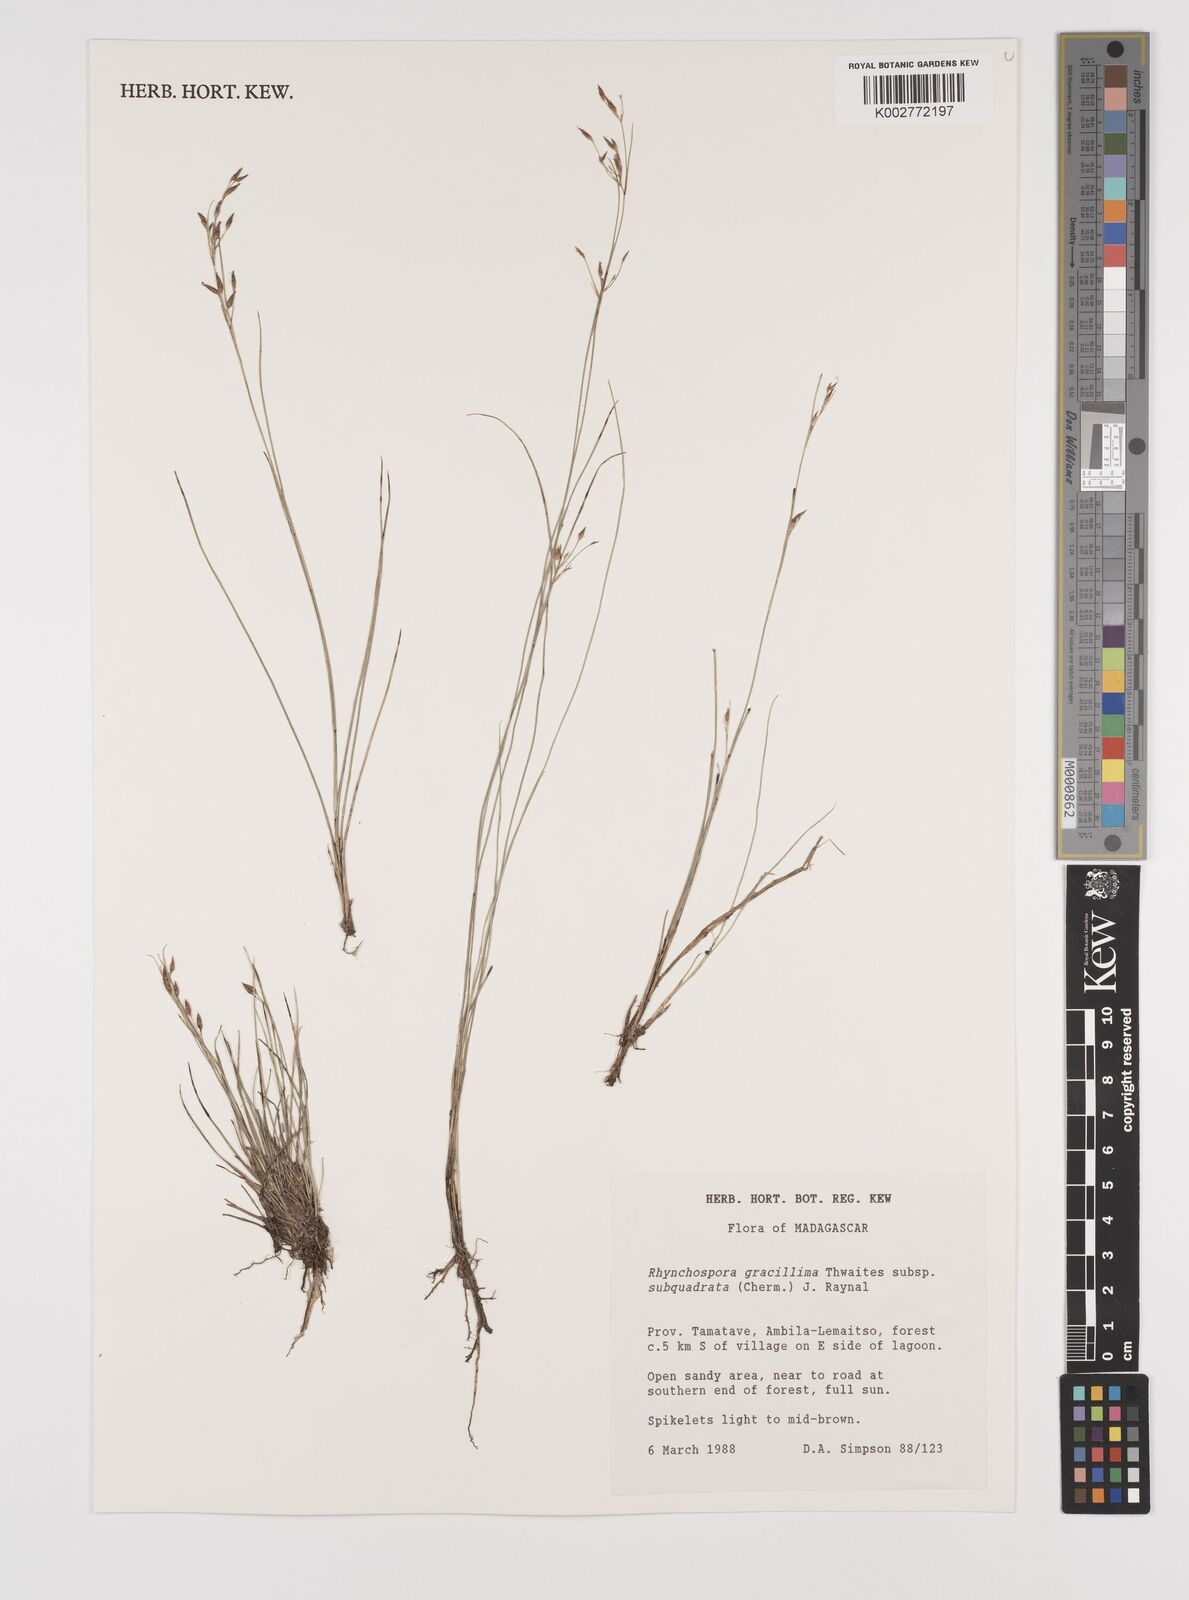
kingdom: Plantae
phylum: Tracheophyta
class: Liliopsida
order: Poales
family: Cyperaceae
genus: Rhynchospora
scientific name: Rhynchospora gracillima
